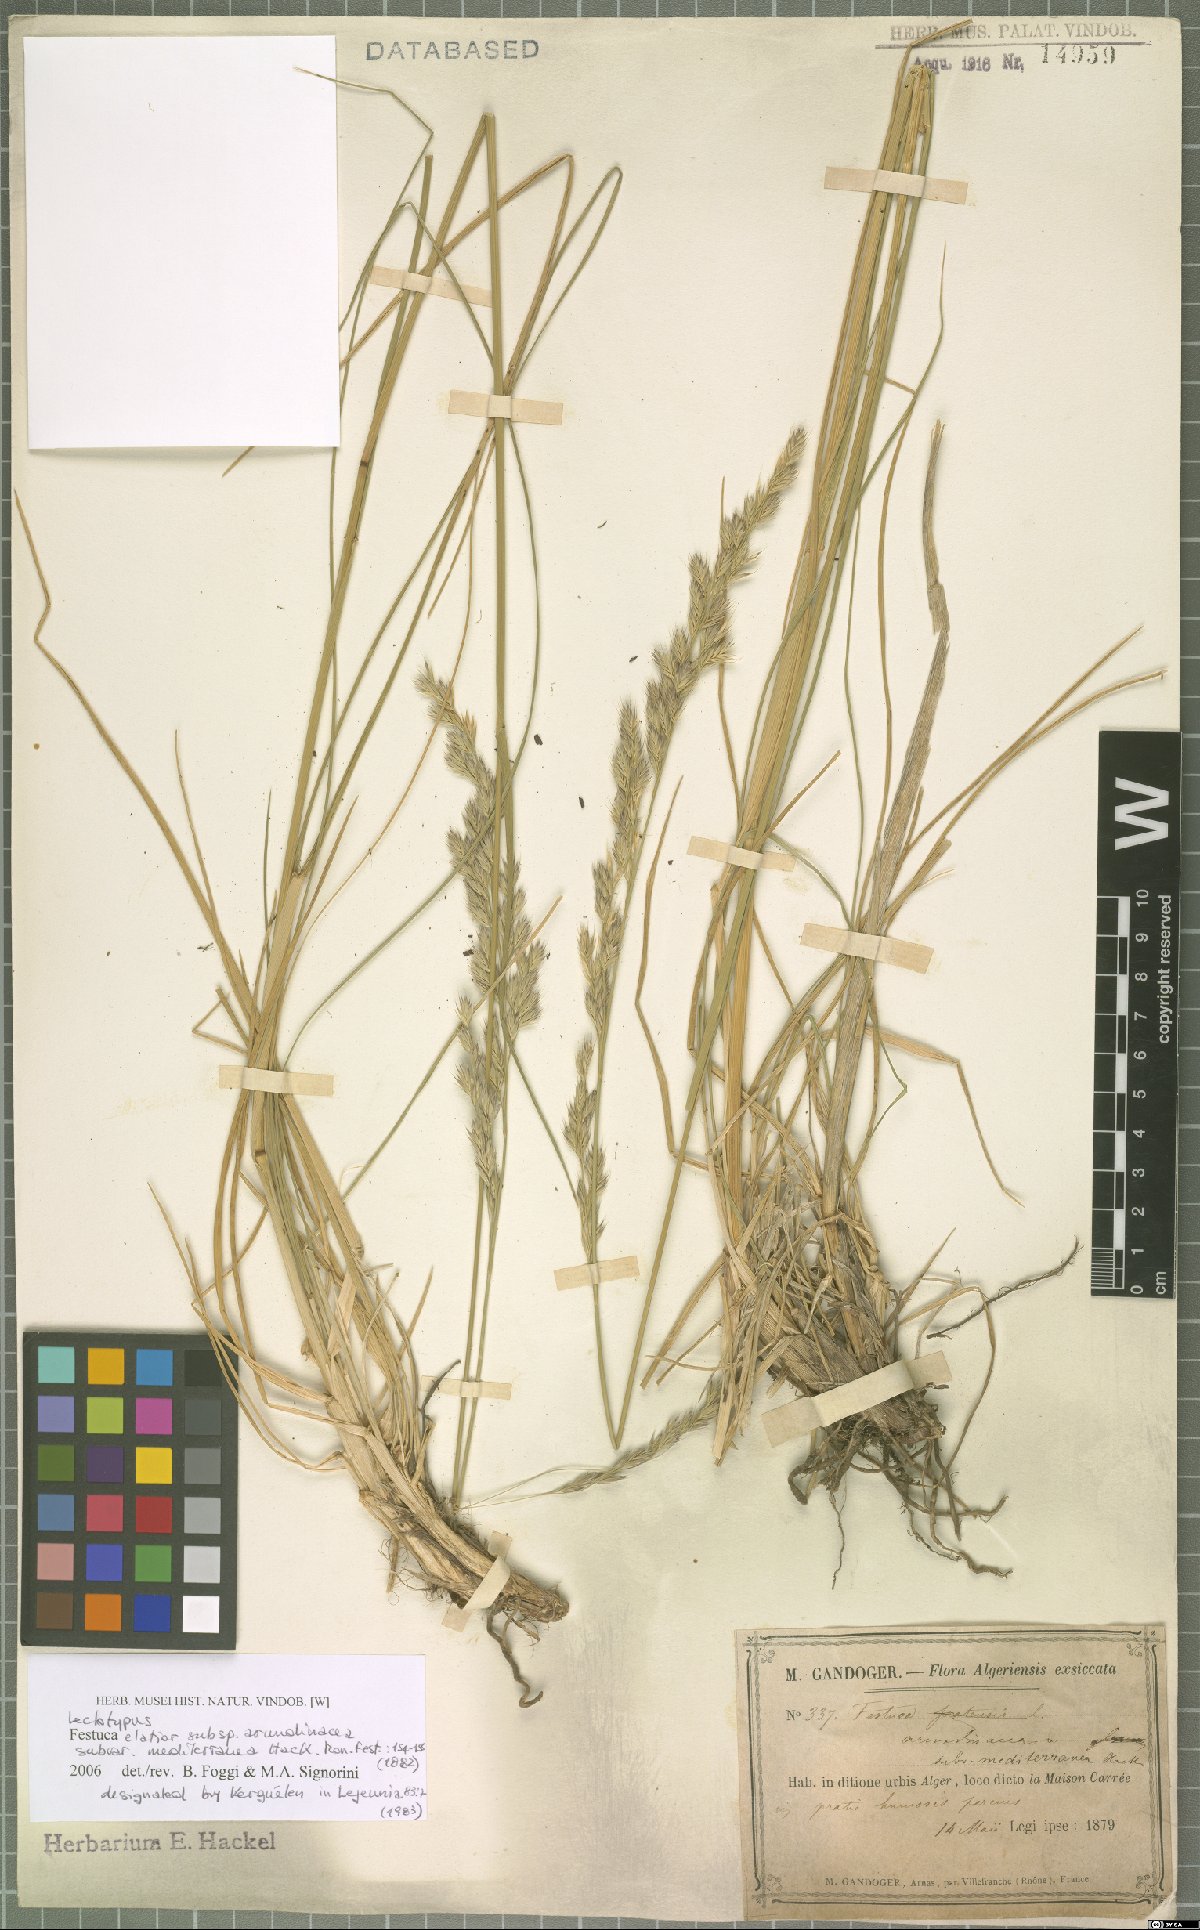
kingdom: Plantae
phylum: Tracheophyta
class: Liliopsida
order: Poales
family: Poaceae
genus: Lolium
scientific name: Lolium mediterraneum
